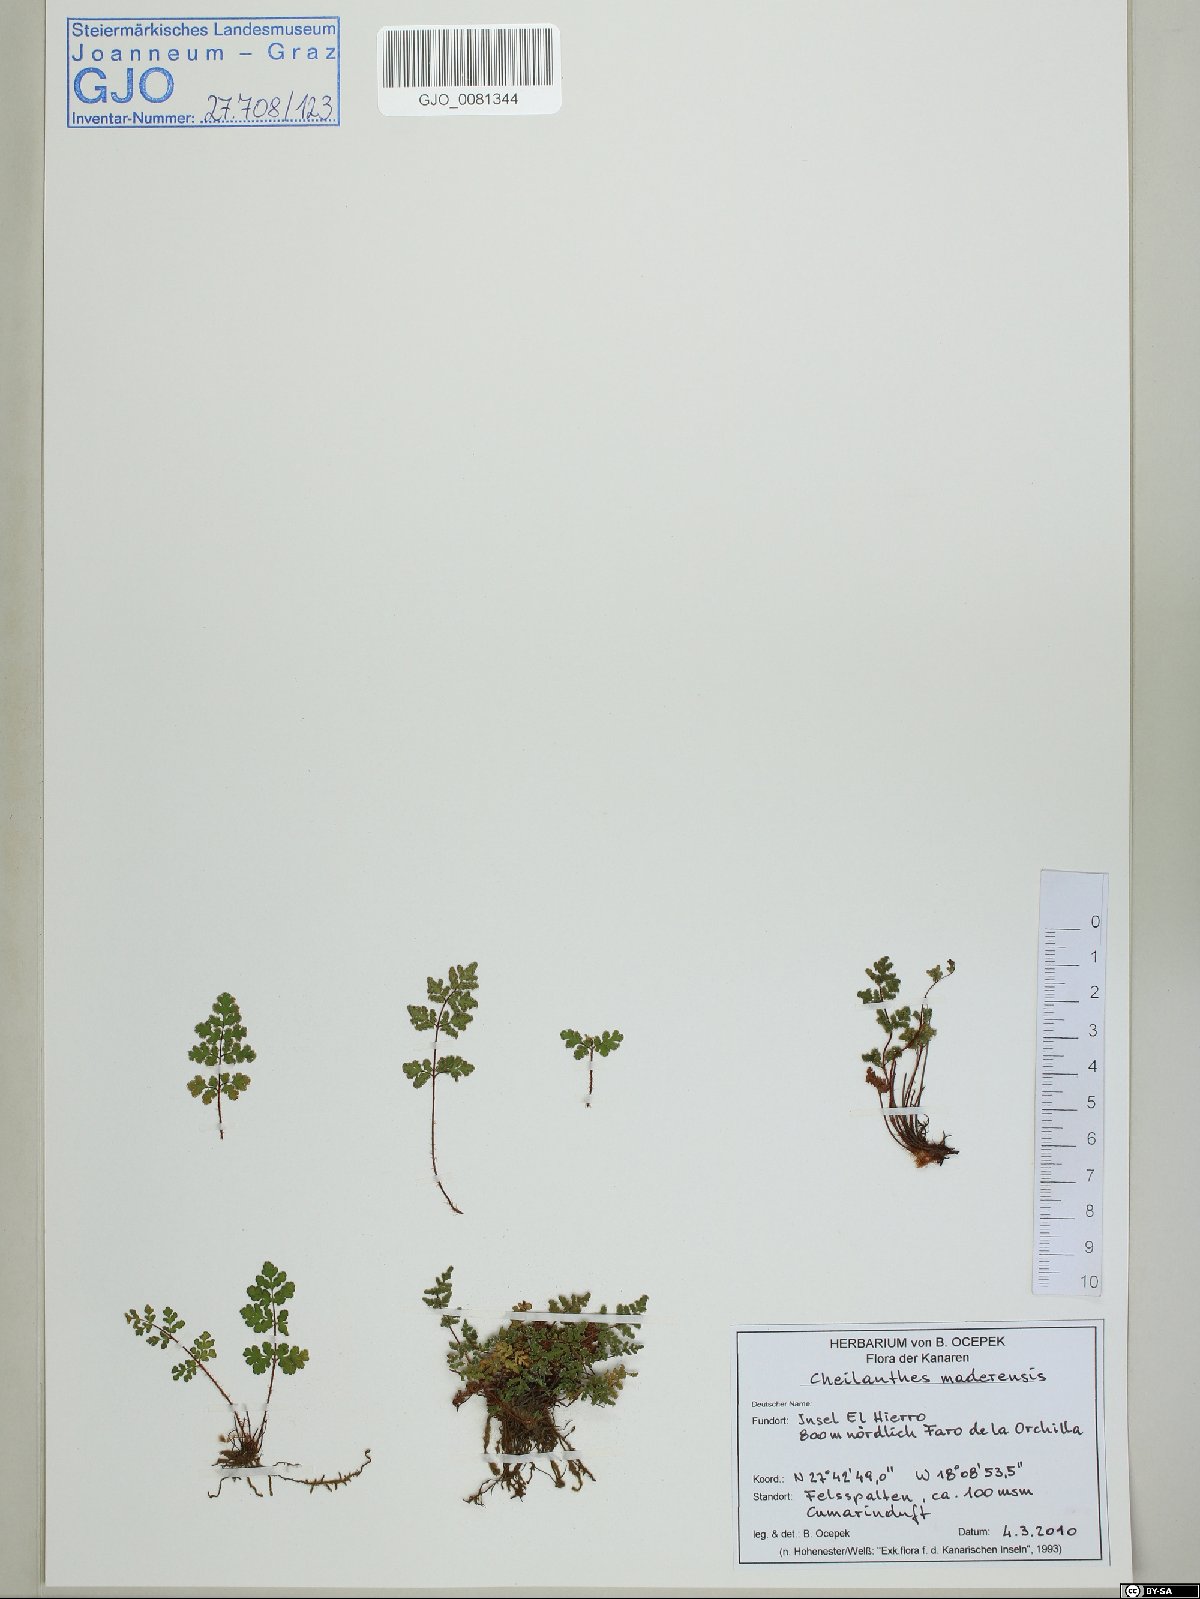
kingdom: Plantae
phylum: Tracheophyta
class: Polypodiopsida
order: Polypodiales
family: Pteridaceae
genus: Oeosporangium
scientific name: Oeosporangium pteridioides
